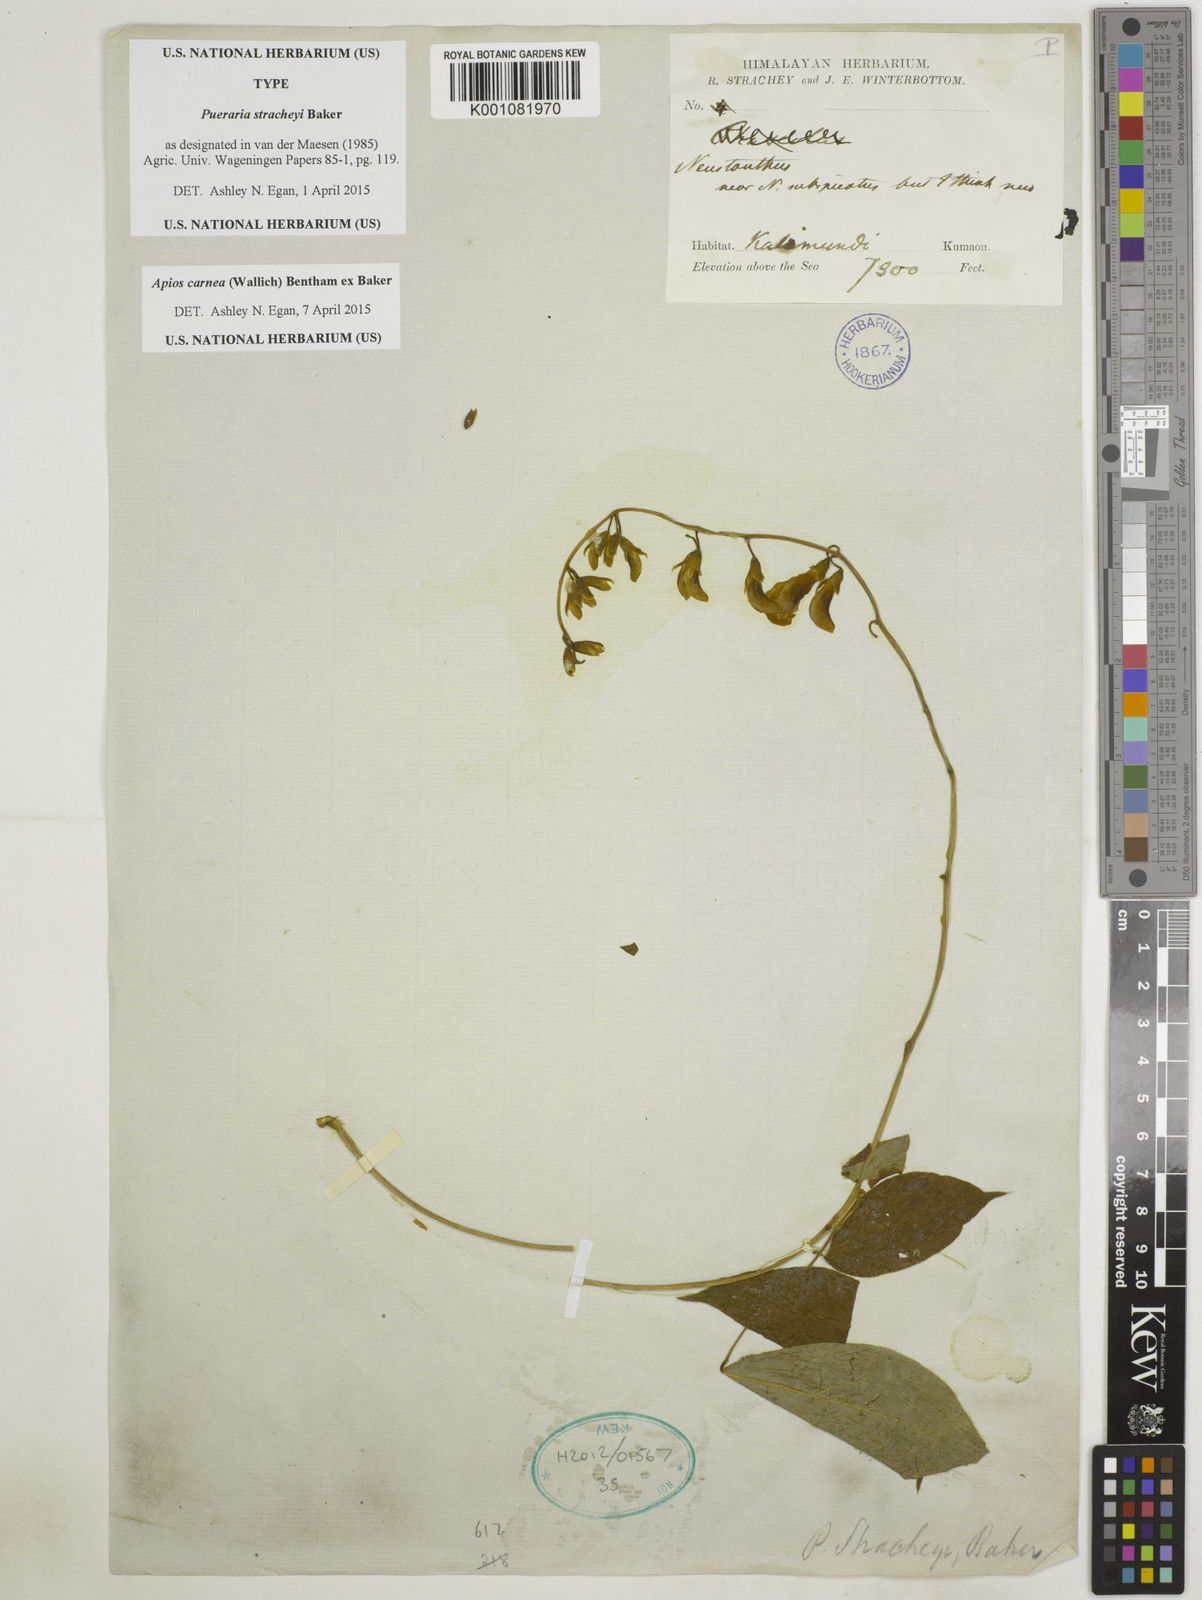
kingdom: Plantae
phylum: Tracheophyta
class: Magnoliopsida
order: Fabales
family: Fabaceae
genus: Apios
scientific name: Apios carnea
